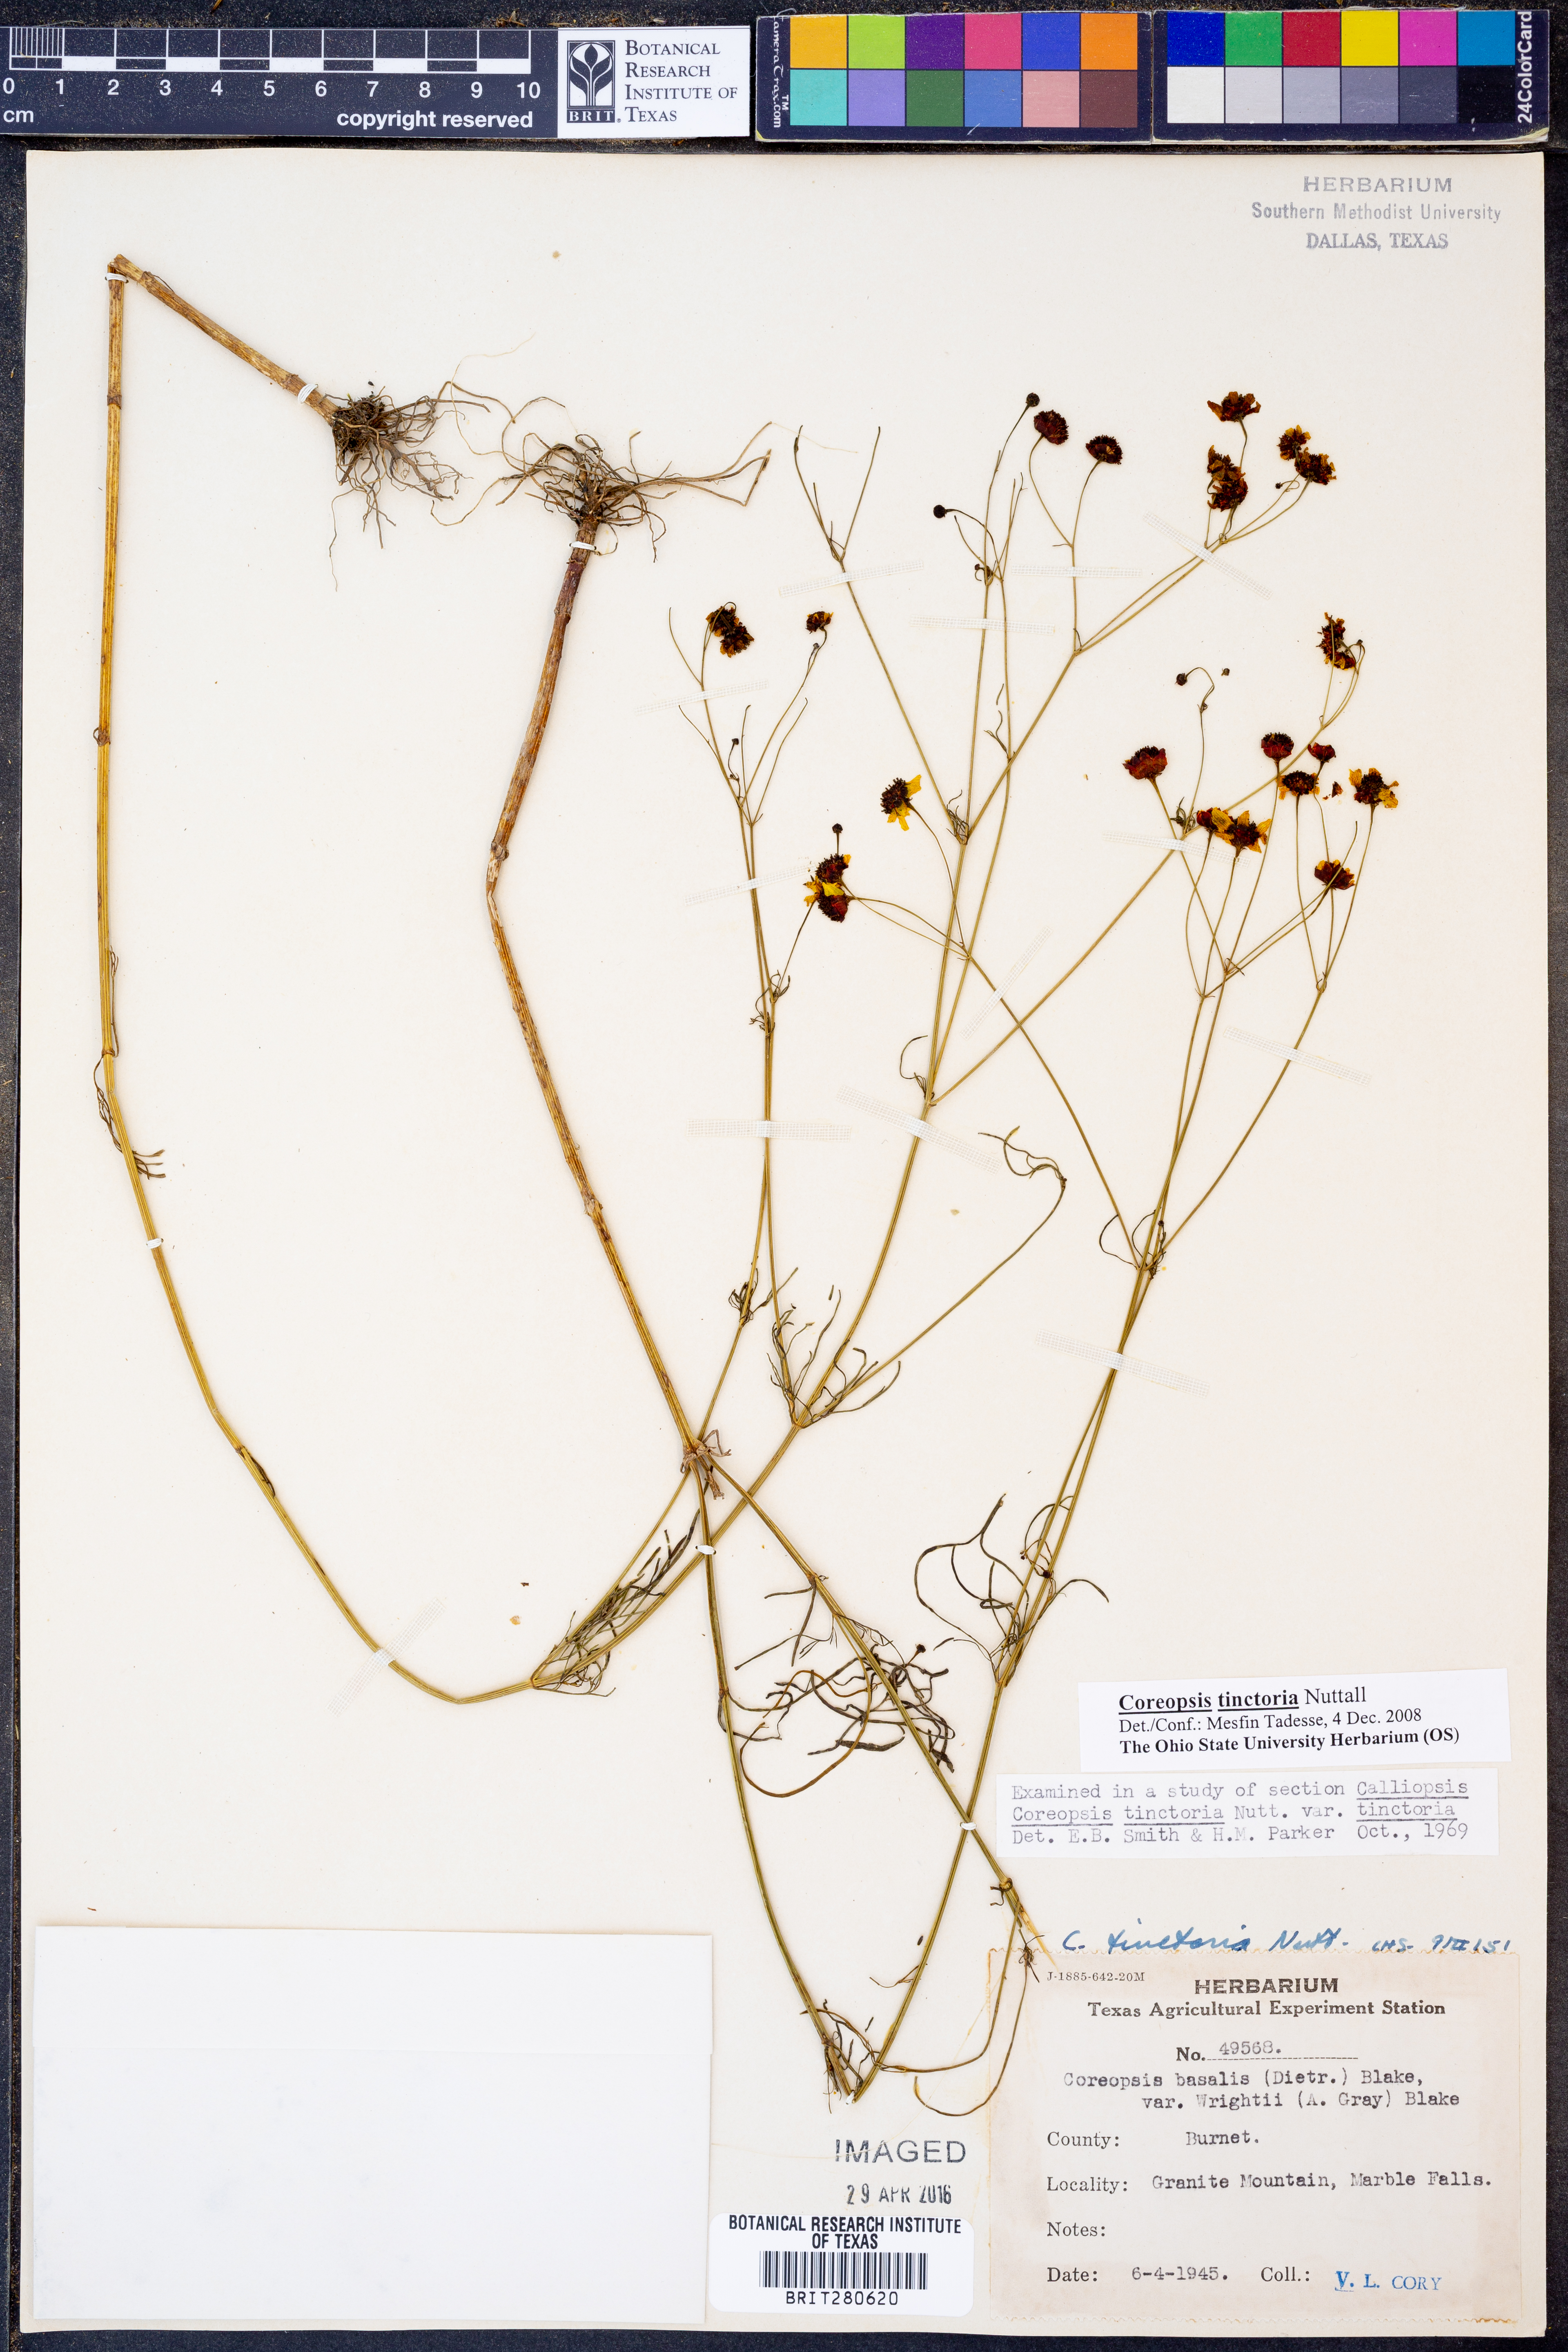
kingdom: Plantae
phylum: Tracheophyta
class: Magnoliopsida
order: Asterales
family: Asteraceae
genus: Coreopsis
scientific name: Coreopsis tinctoria
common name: Garden tickseed
